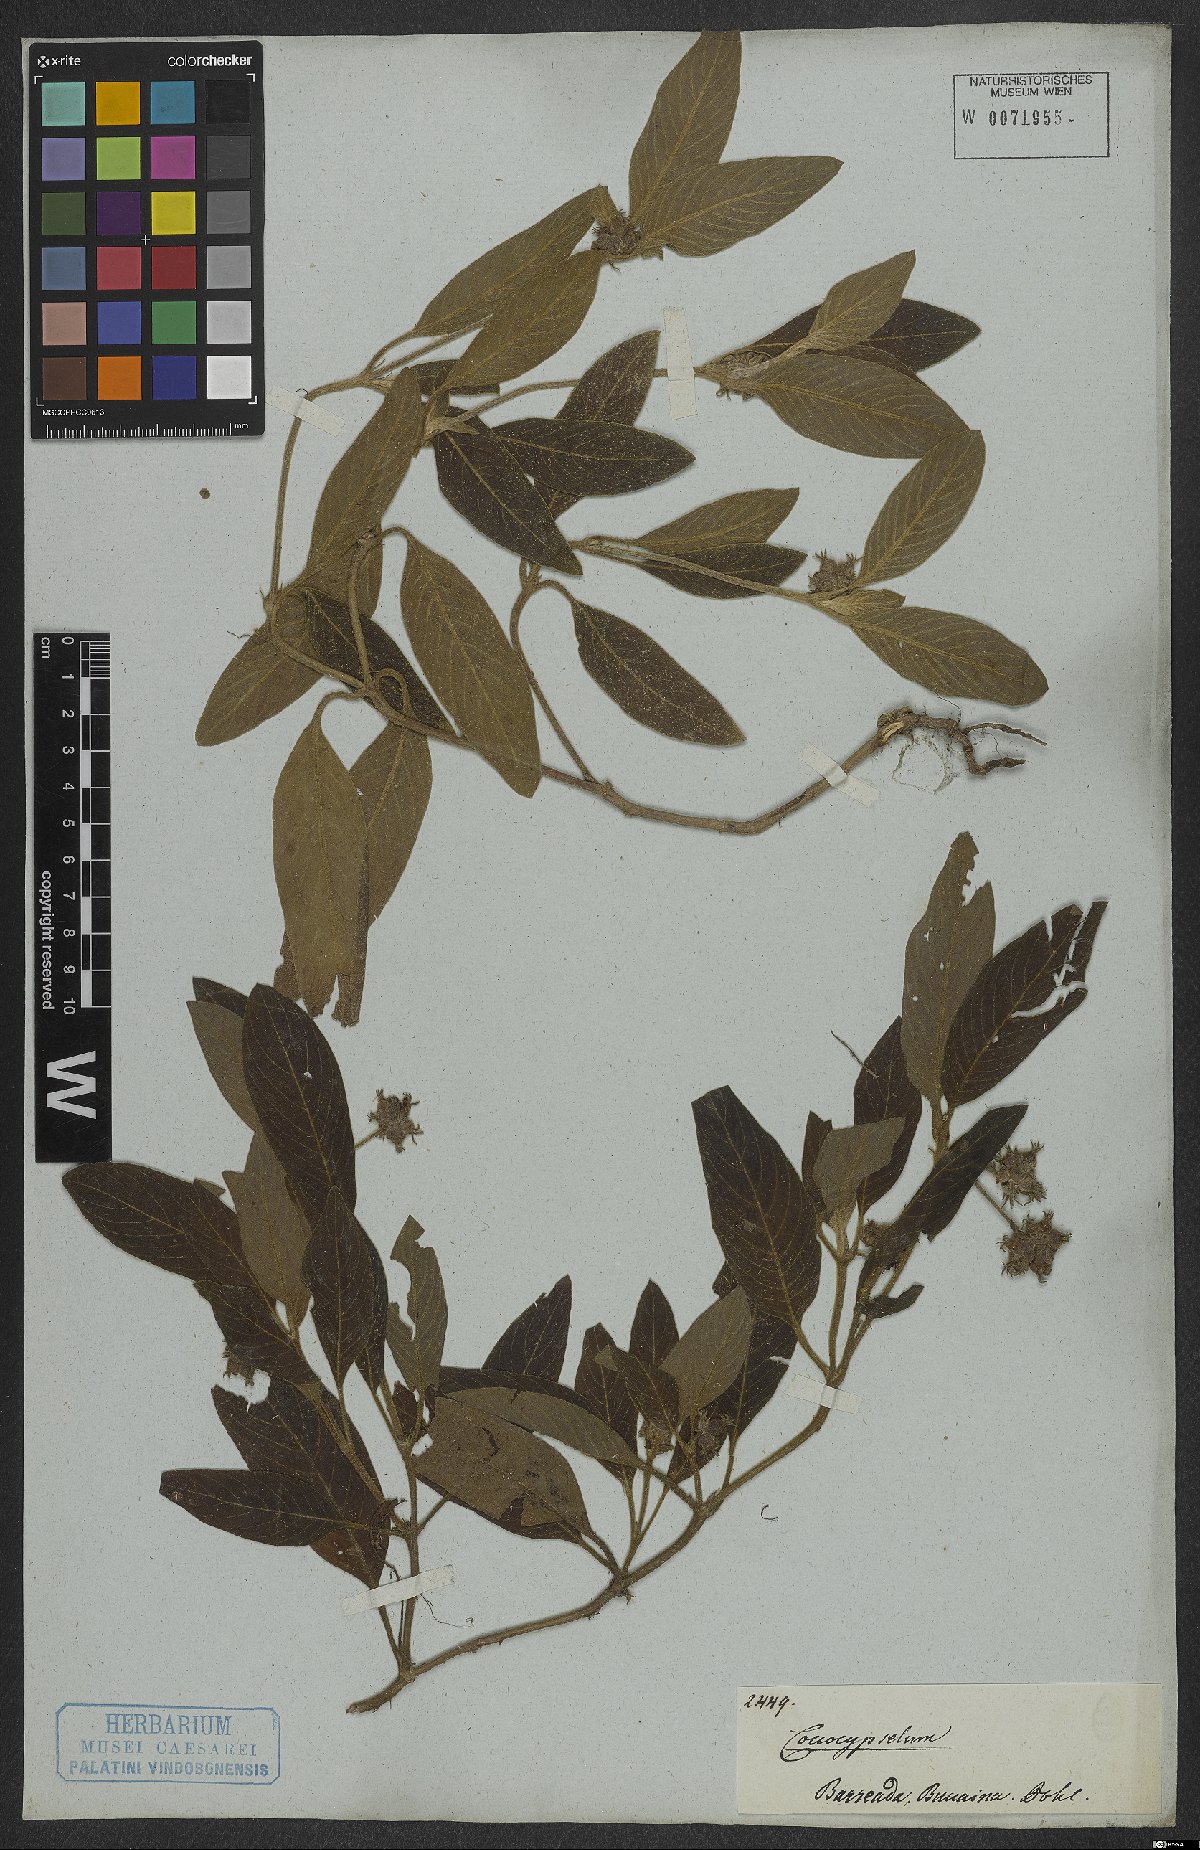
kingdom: Plantae
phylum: Tracheophyta
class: Magnoliopsida
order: Gentianales
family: Rubiaceae
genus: Coccocypselum
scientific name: Coccocypselum
